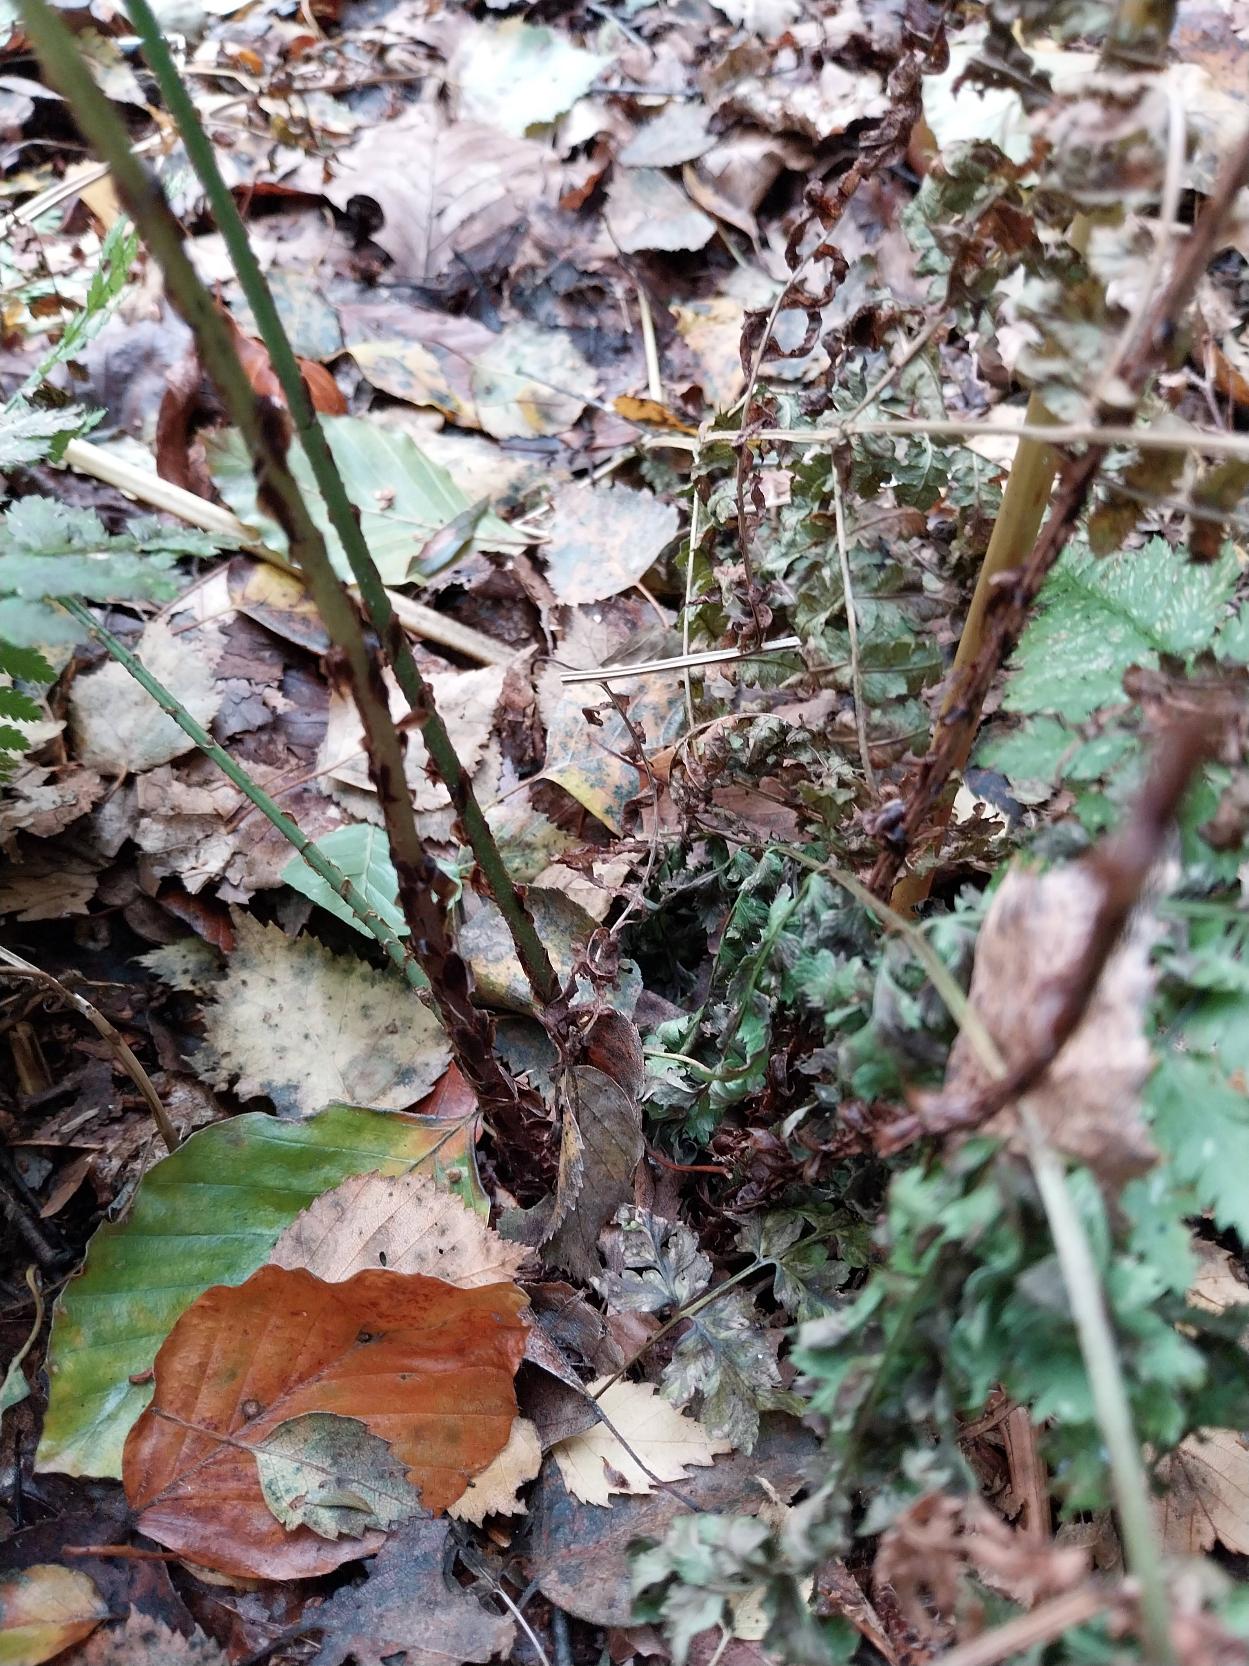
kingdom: Plantae
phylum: Tracheophyta
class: Polypodiopsida
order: Polypodiales
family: Dryopteridaceae
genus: Dryopteris
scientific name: Dryopteris dilatata
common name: Bredbladet mangeløv
